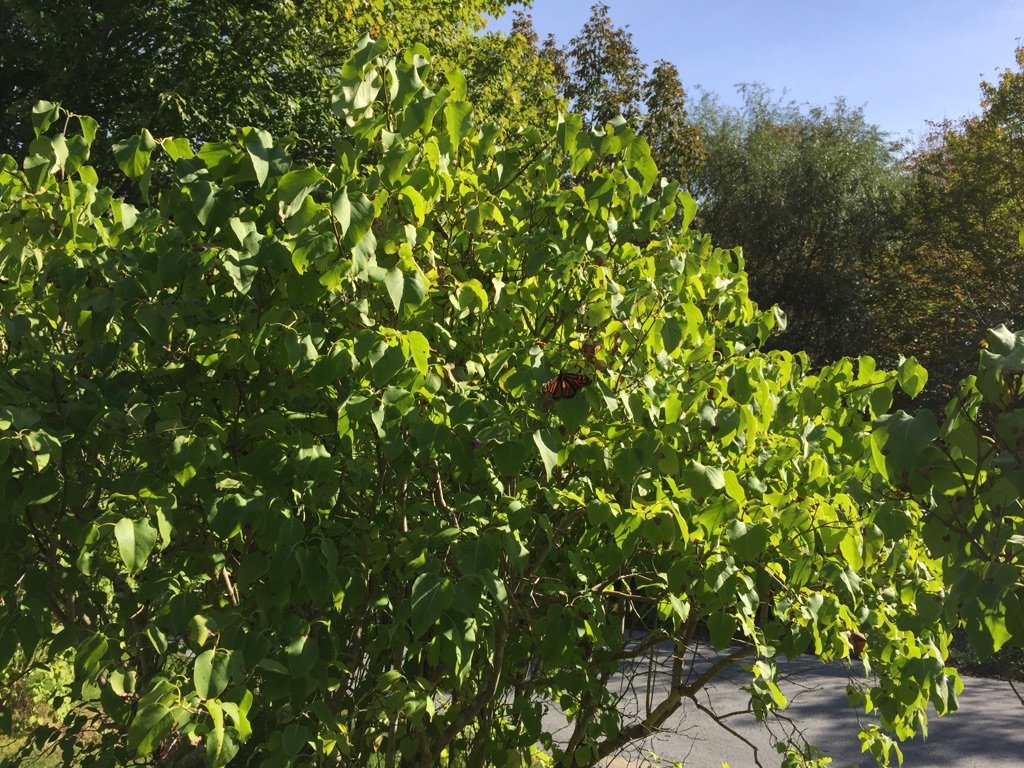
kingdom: Animalia
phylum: Arthropoda
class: Insecta
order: Lepidoptera
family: Nymphalidae
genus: Danaus
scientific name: Danaus plexippus
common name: Monarch
